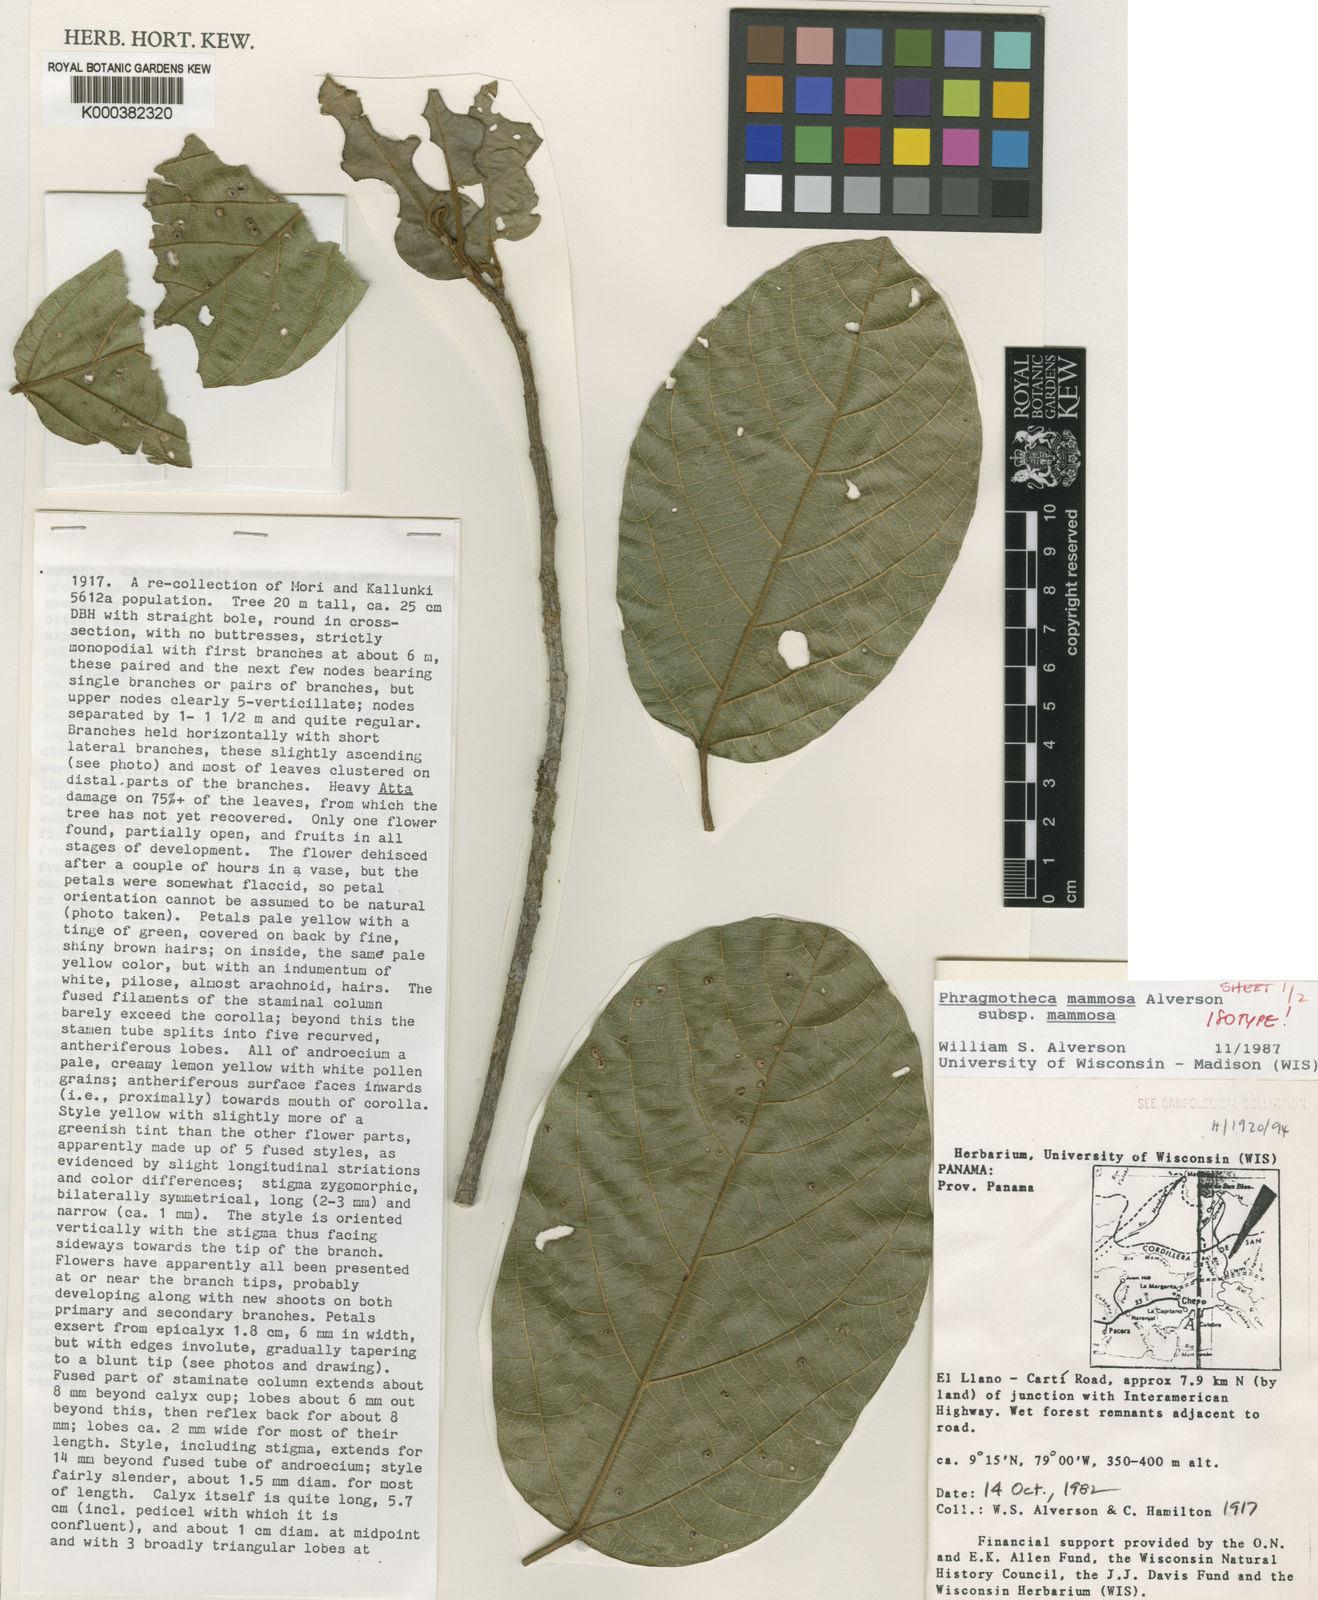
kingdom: Plantae
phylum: Tracheophyta
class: Magnoliopsida
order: Malvales
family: Malvaceae
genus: Phragmotheca
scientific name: Phragmotheca mammosa
